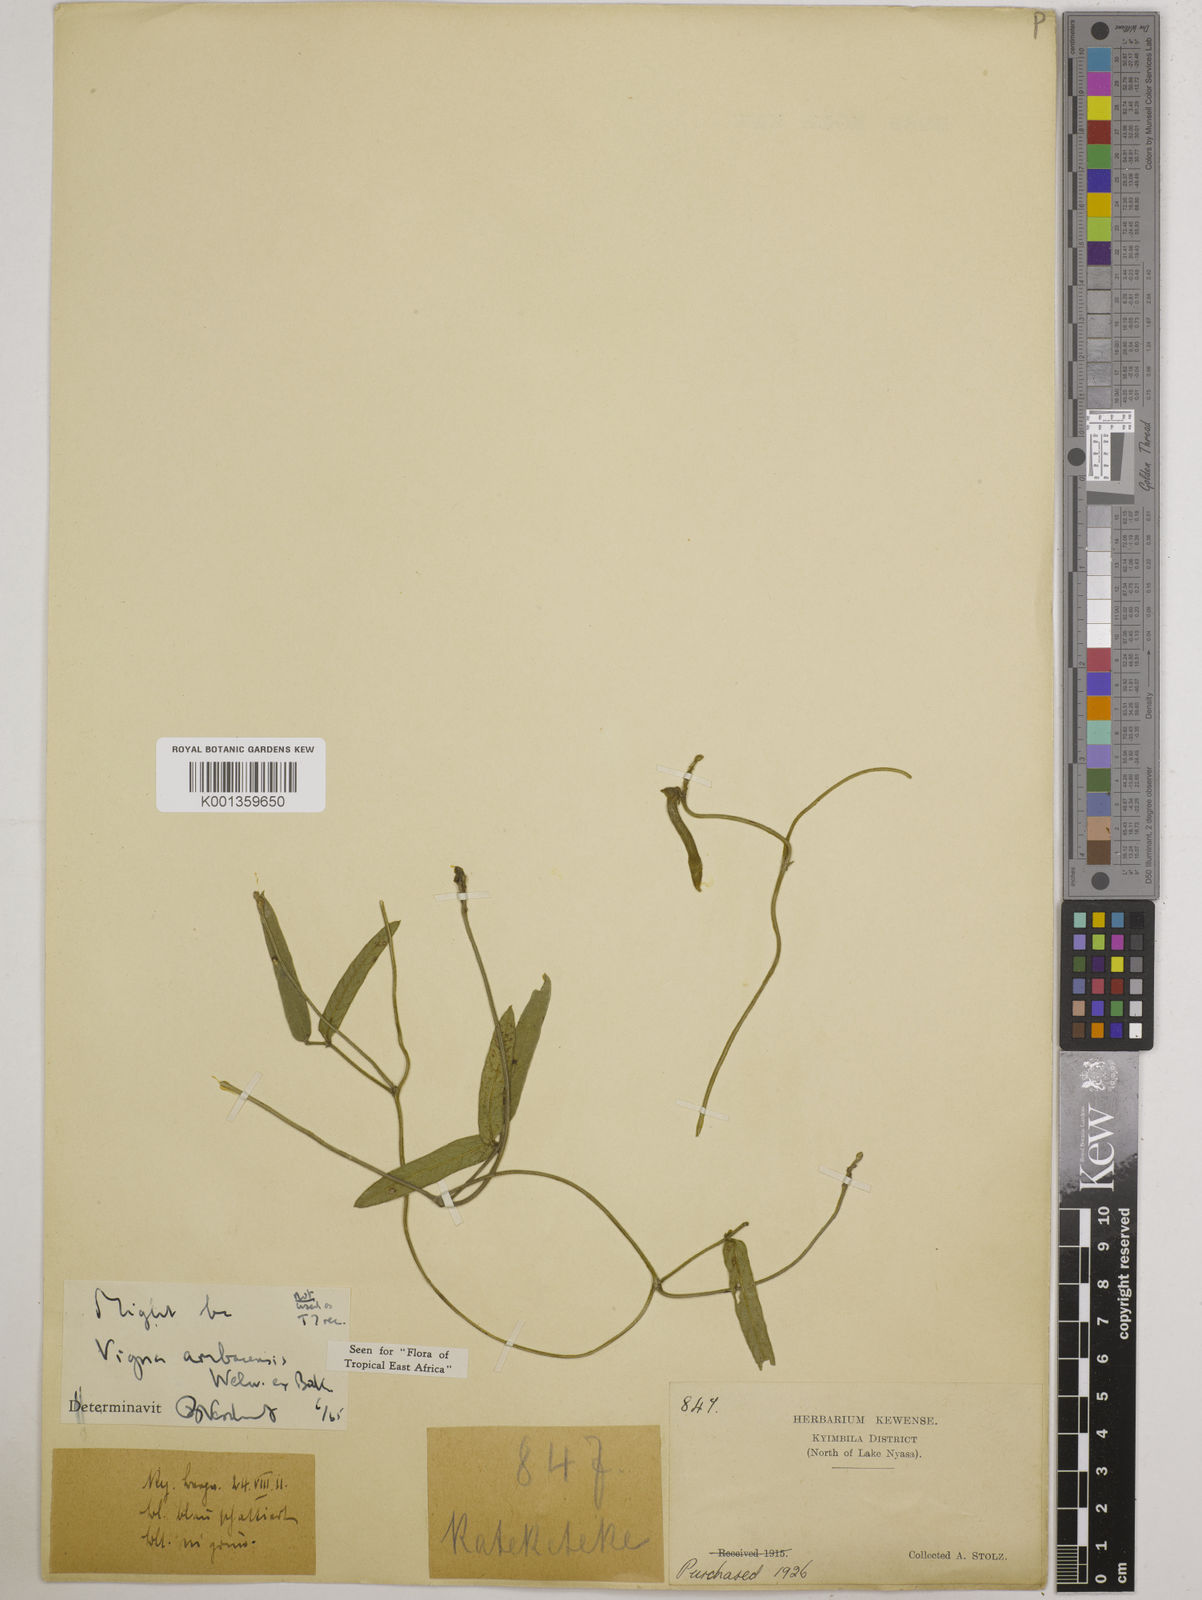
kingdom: Plantae
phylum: Tracheophyta
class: Magnoliopsida
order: Fabales
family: Fabaceae
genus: Vigna
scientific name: Vigna ambacensis
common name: Tsarkiyan zomo
